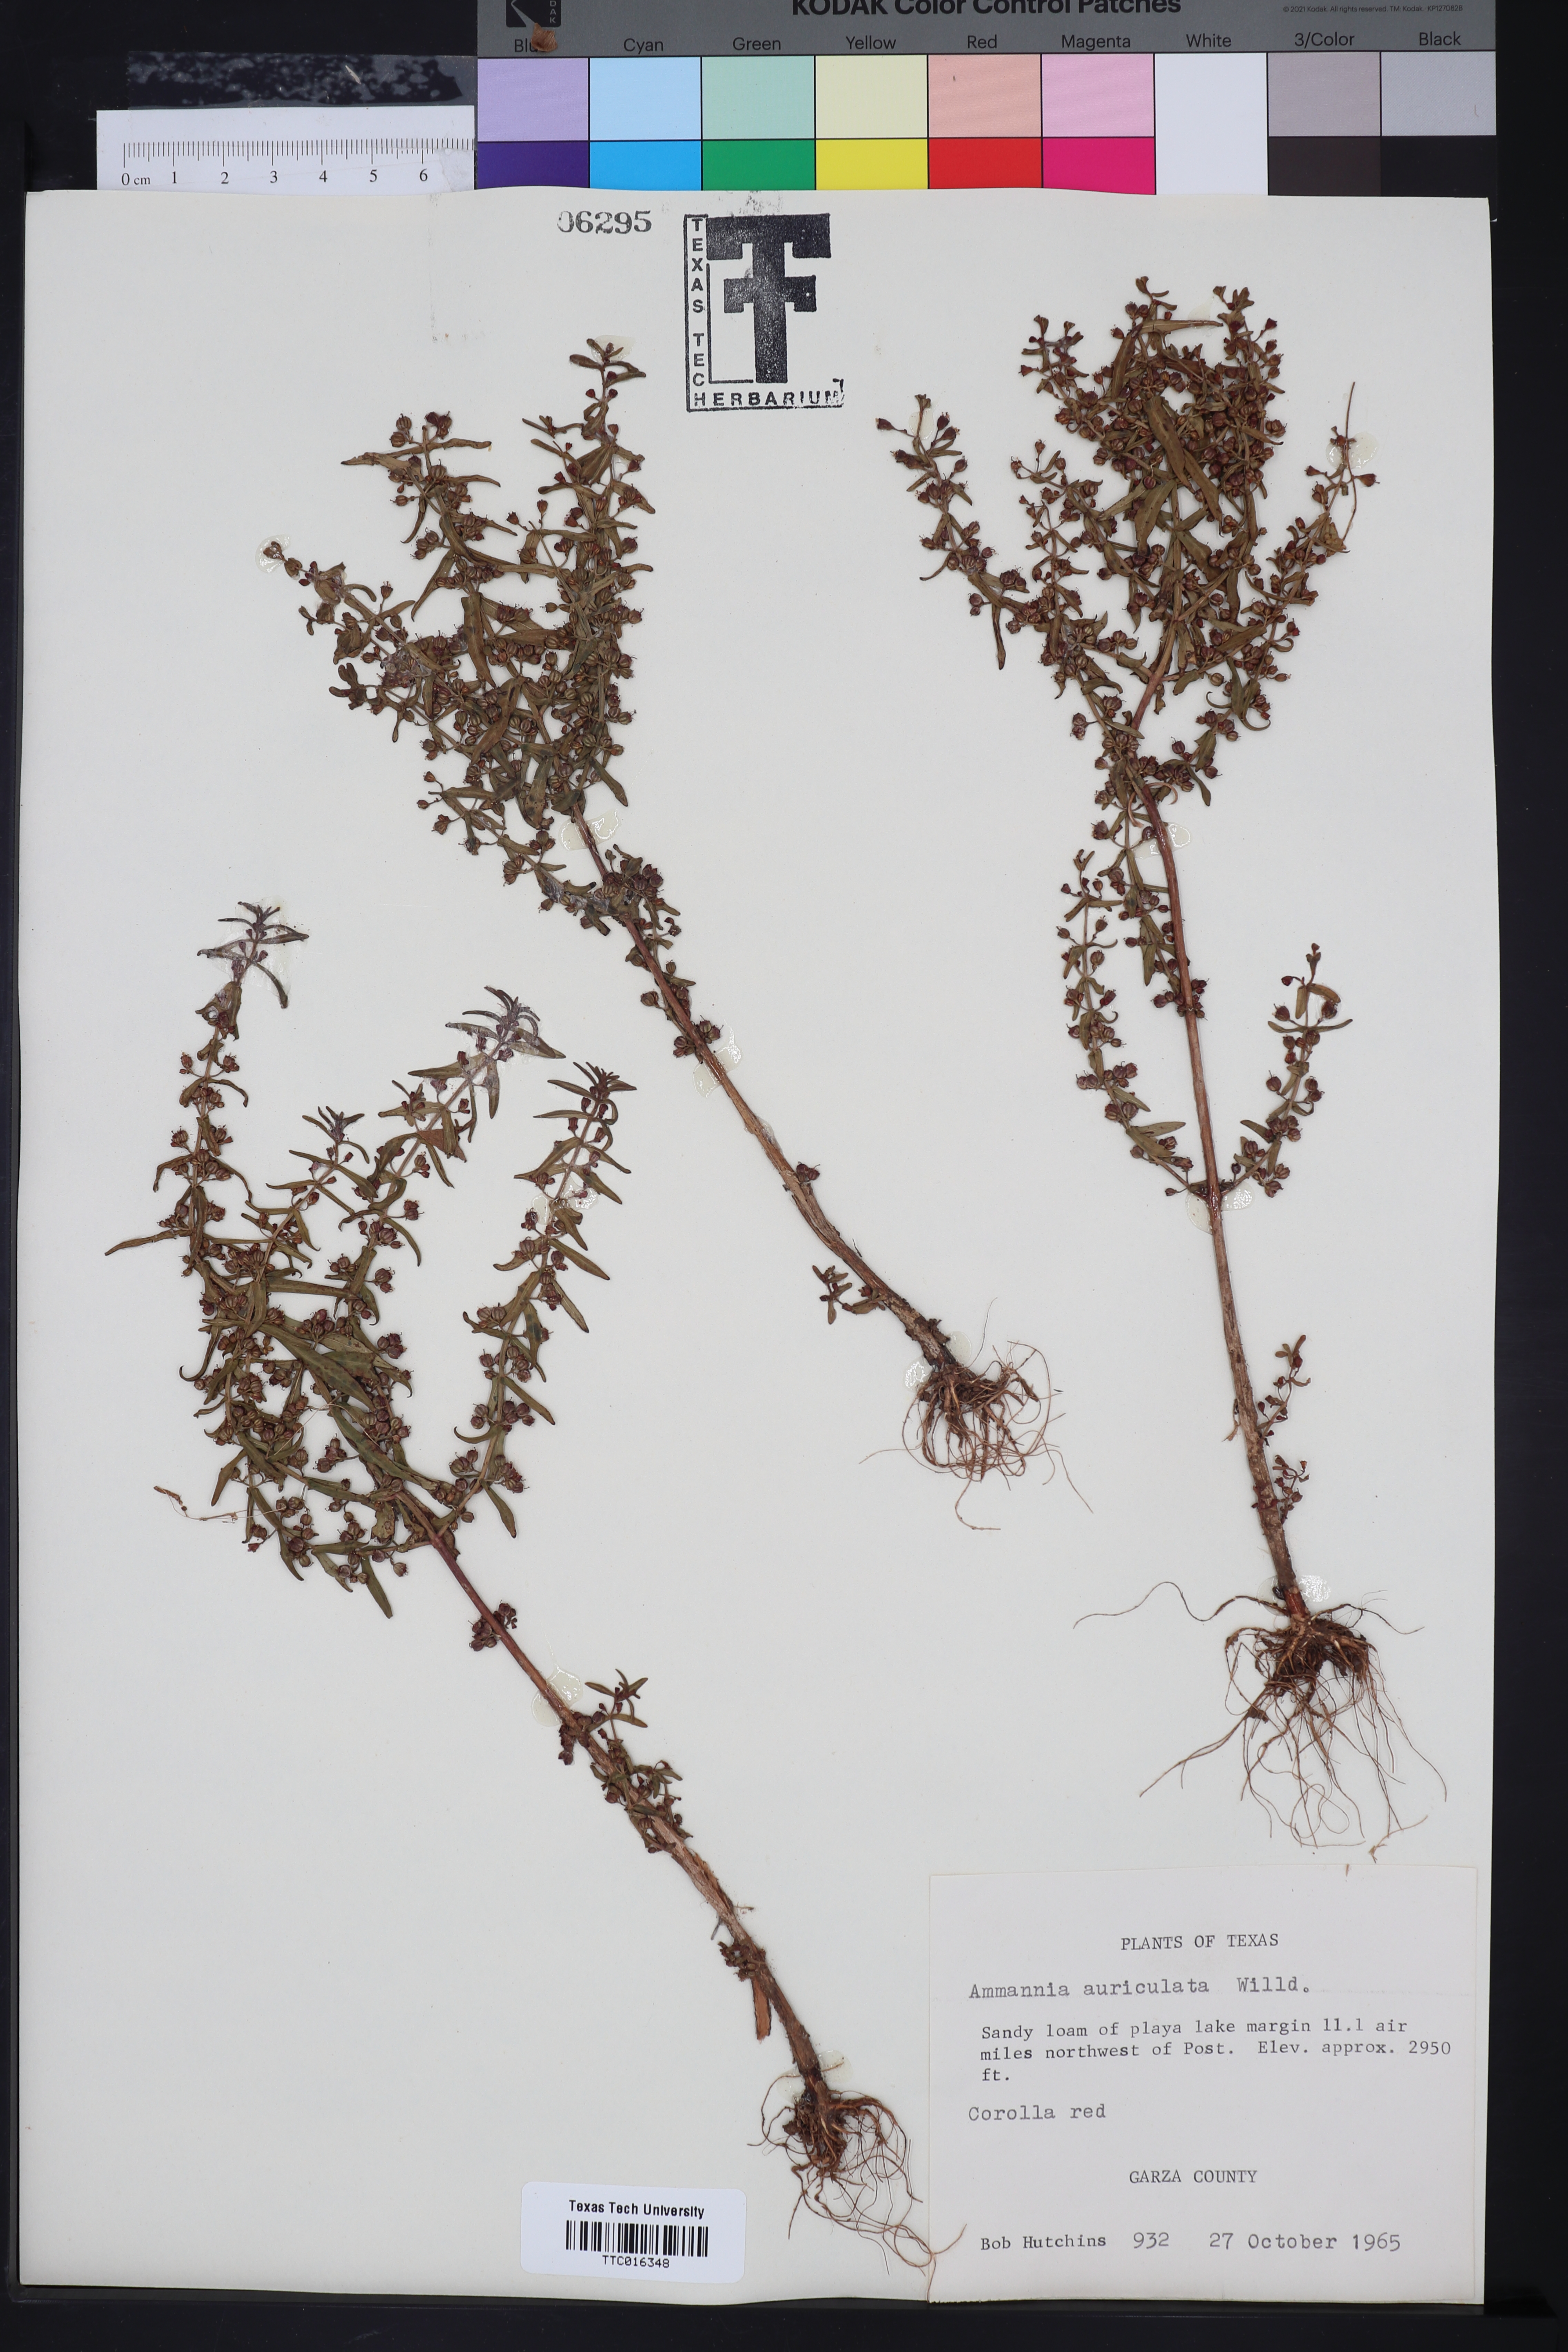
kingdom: Plantae
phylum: Tracheophyta
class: Magnoliopsida
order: Myrtales
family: Lythraceae
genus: Ammannia
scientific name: Ammannia auriculata
